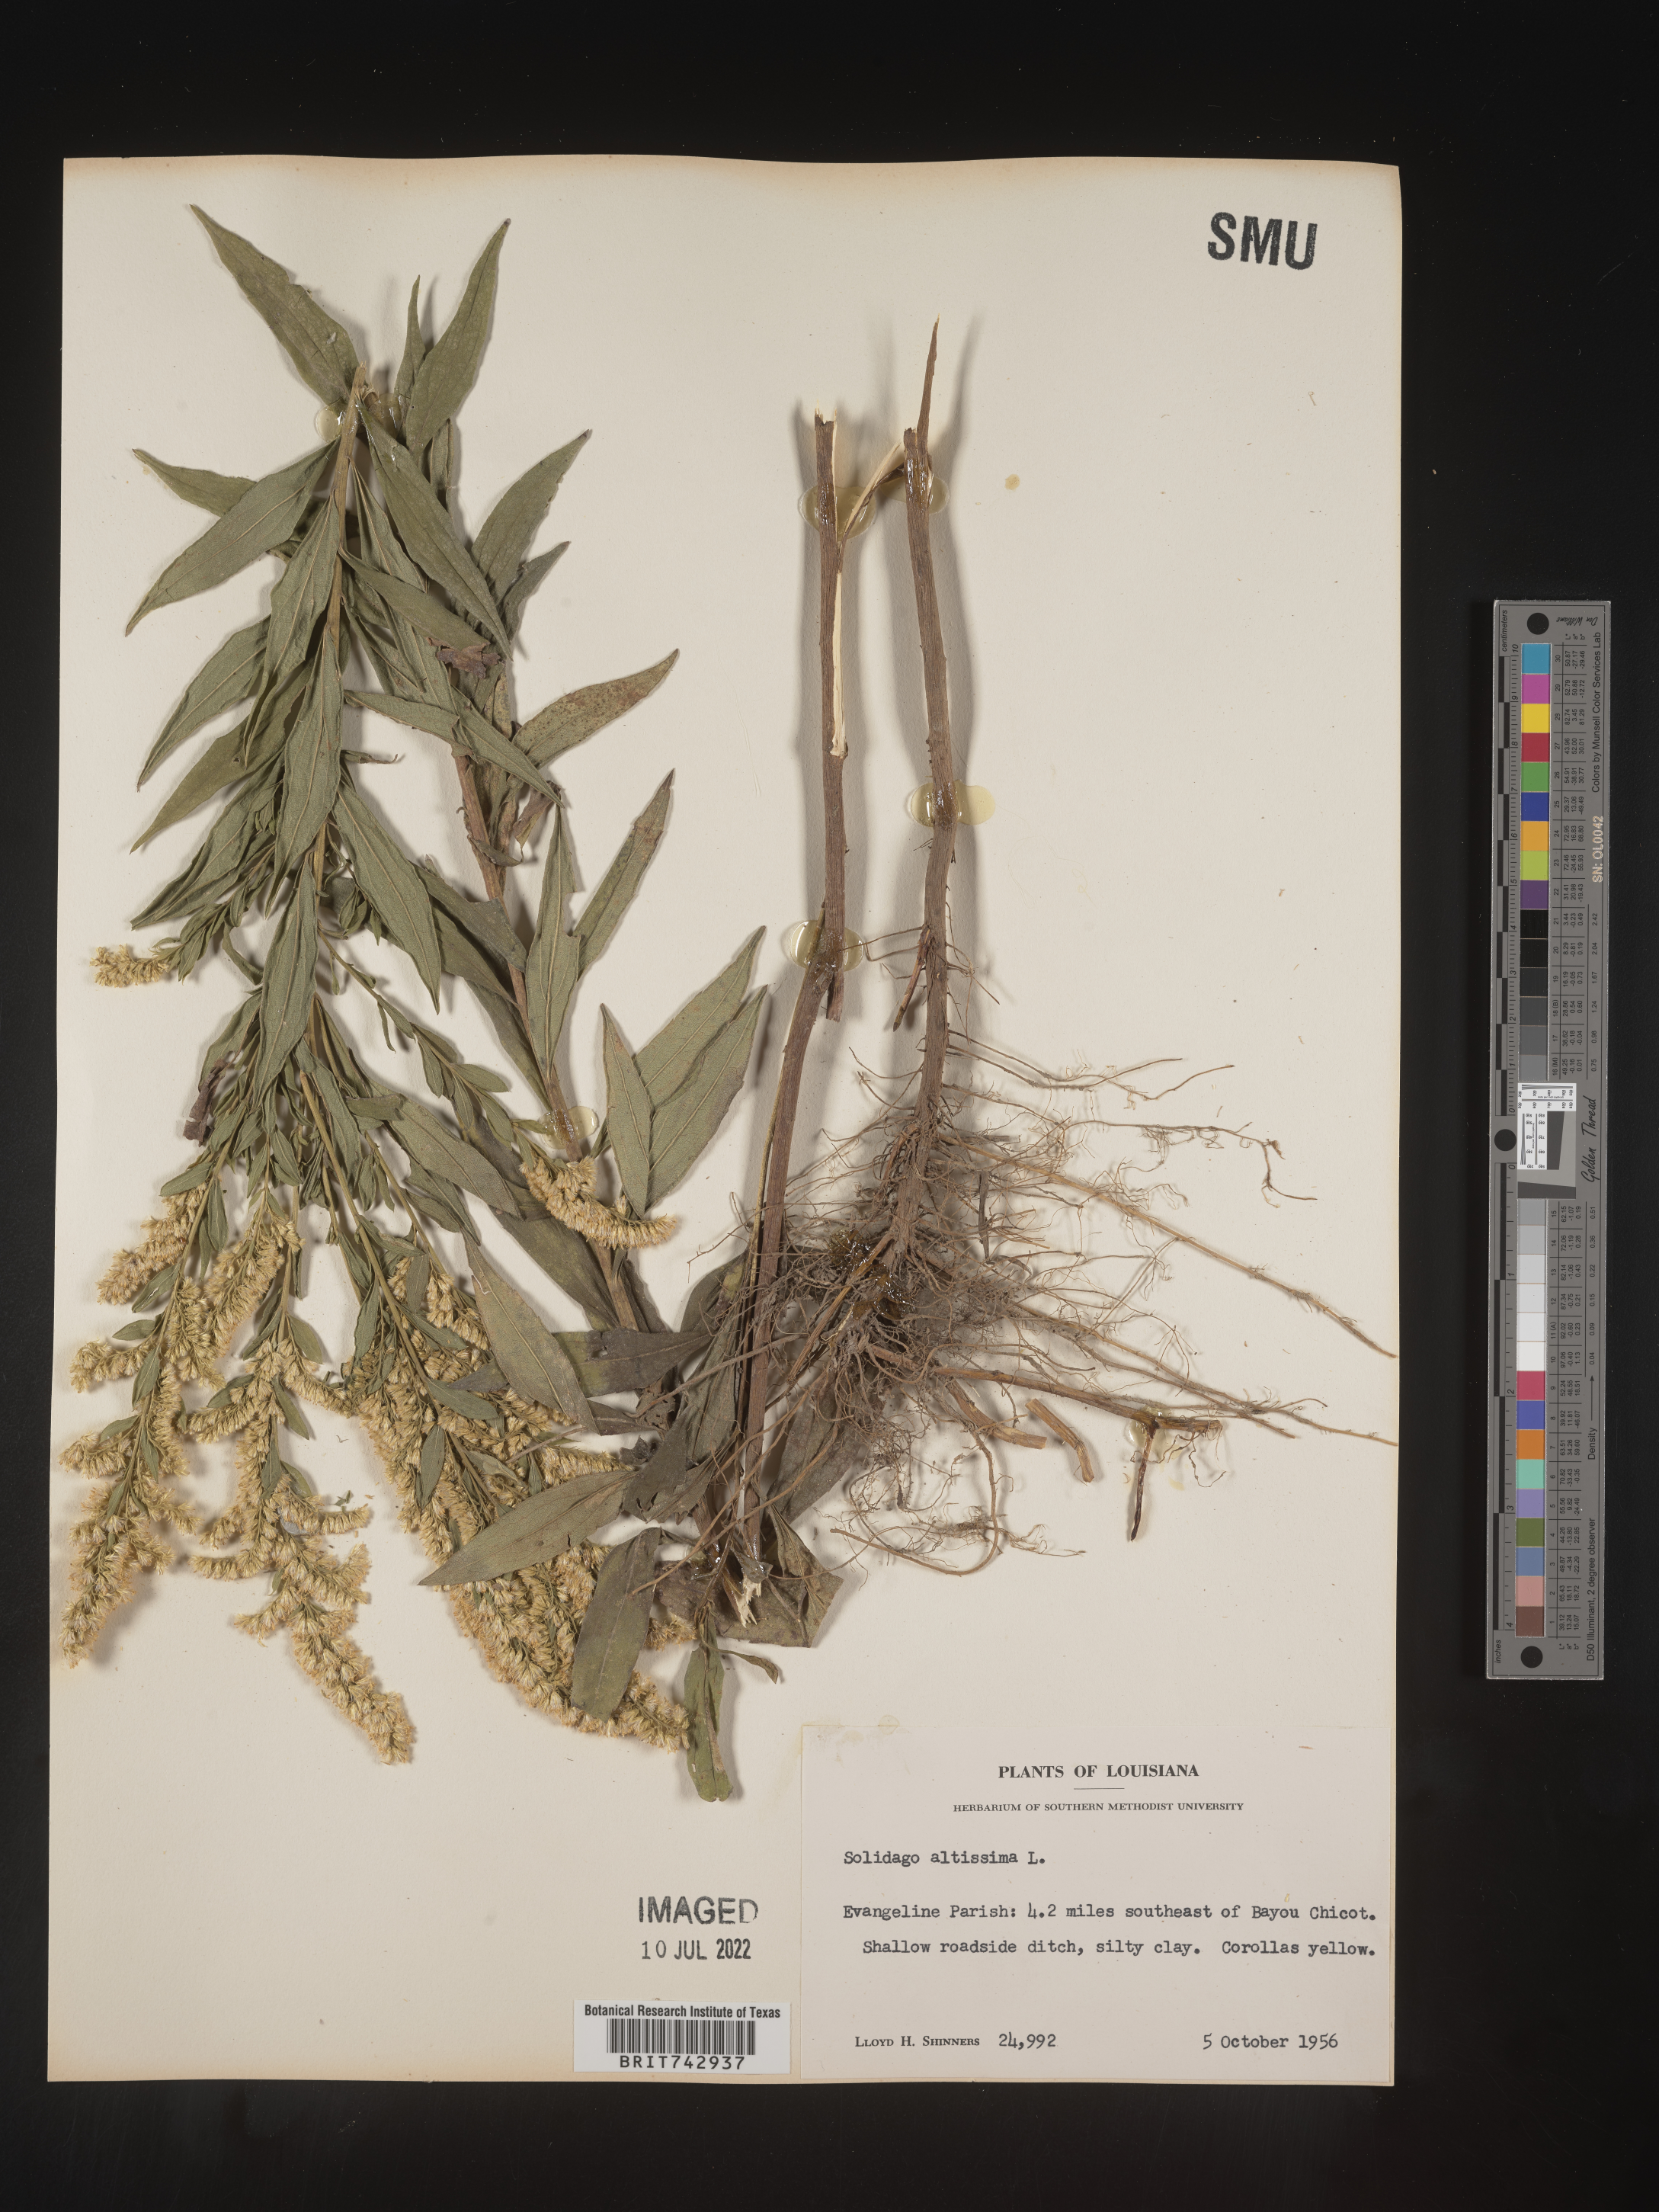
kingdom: Plantae
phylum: Tracheophyta
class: Magnoliopsida
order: Asterales
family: Asteraceae
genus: Solidago
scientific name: Solidago altissima
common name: Late goldenrod
